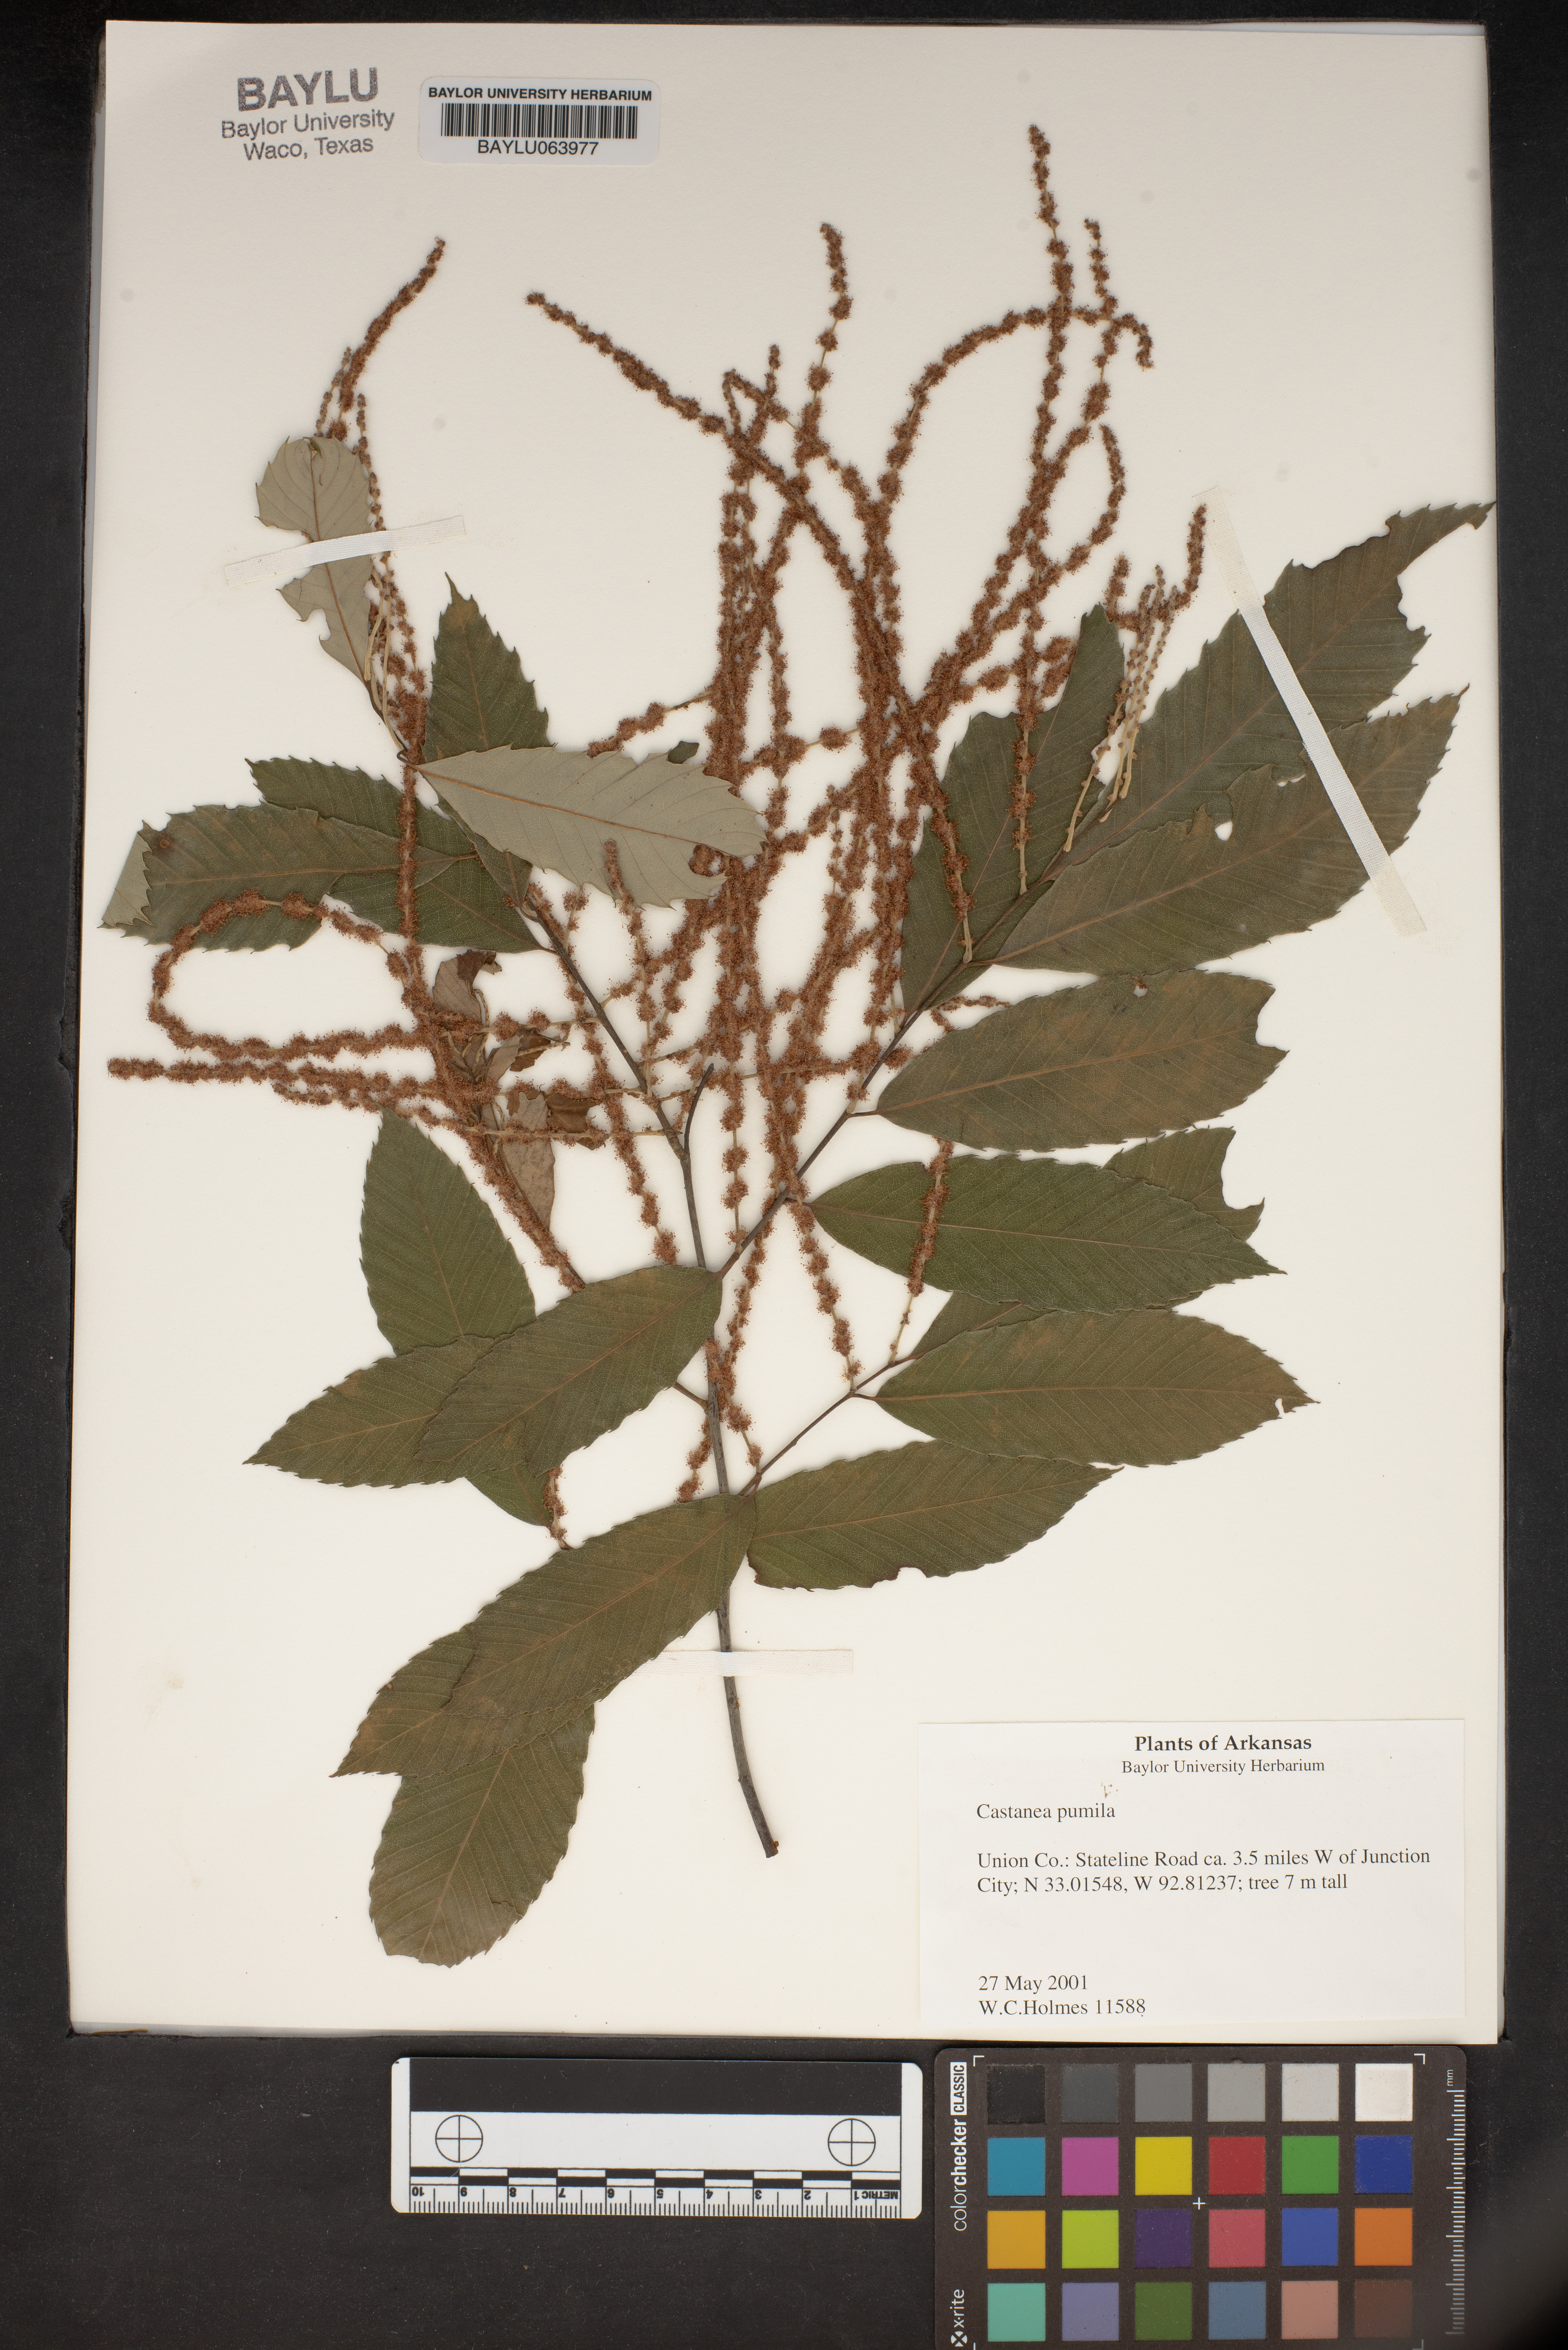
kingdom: Plantae
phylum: Tracheophyta
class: Magnoliopsida
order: Fagales
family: Fagaceae
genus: Castanea
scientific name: Castanea pumila
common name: Chinkapin
